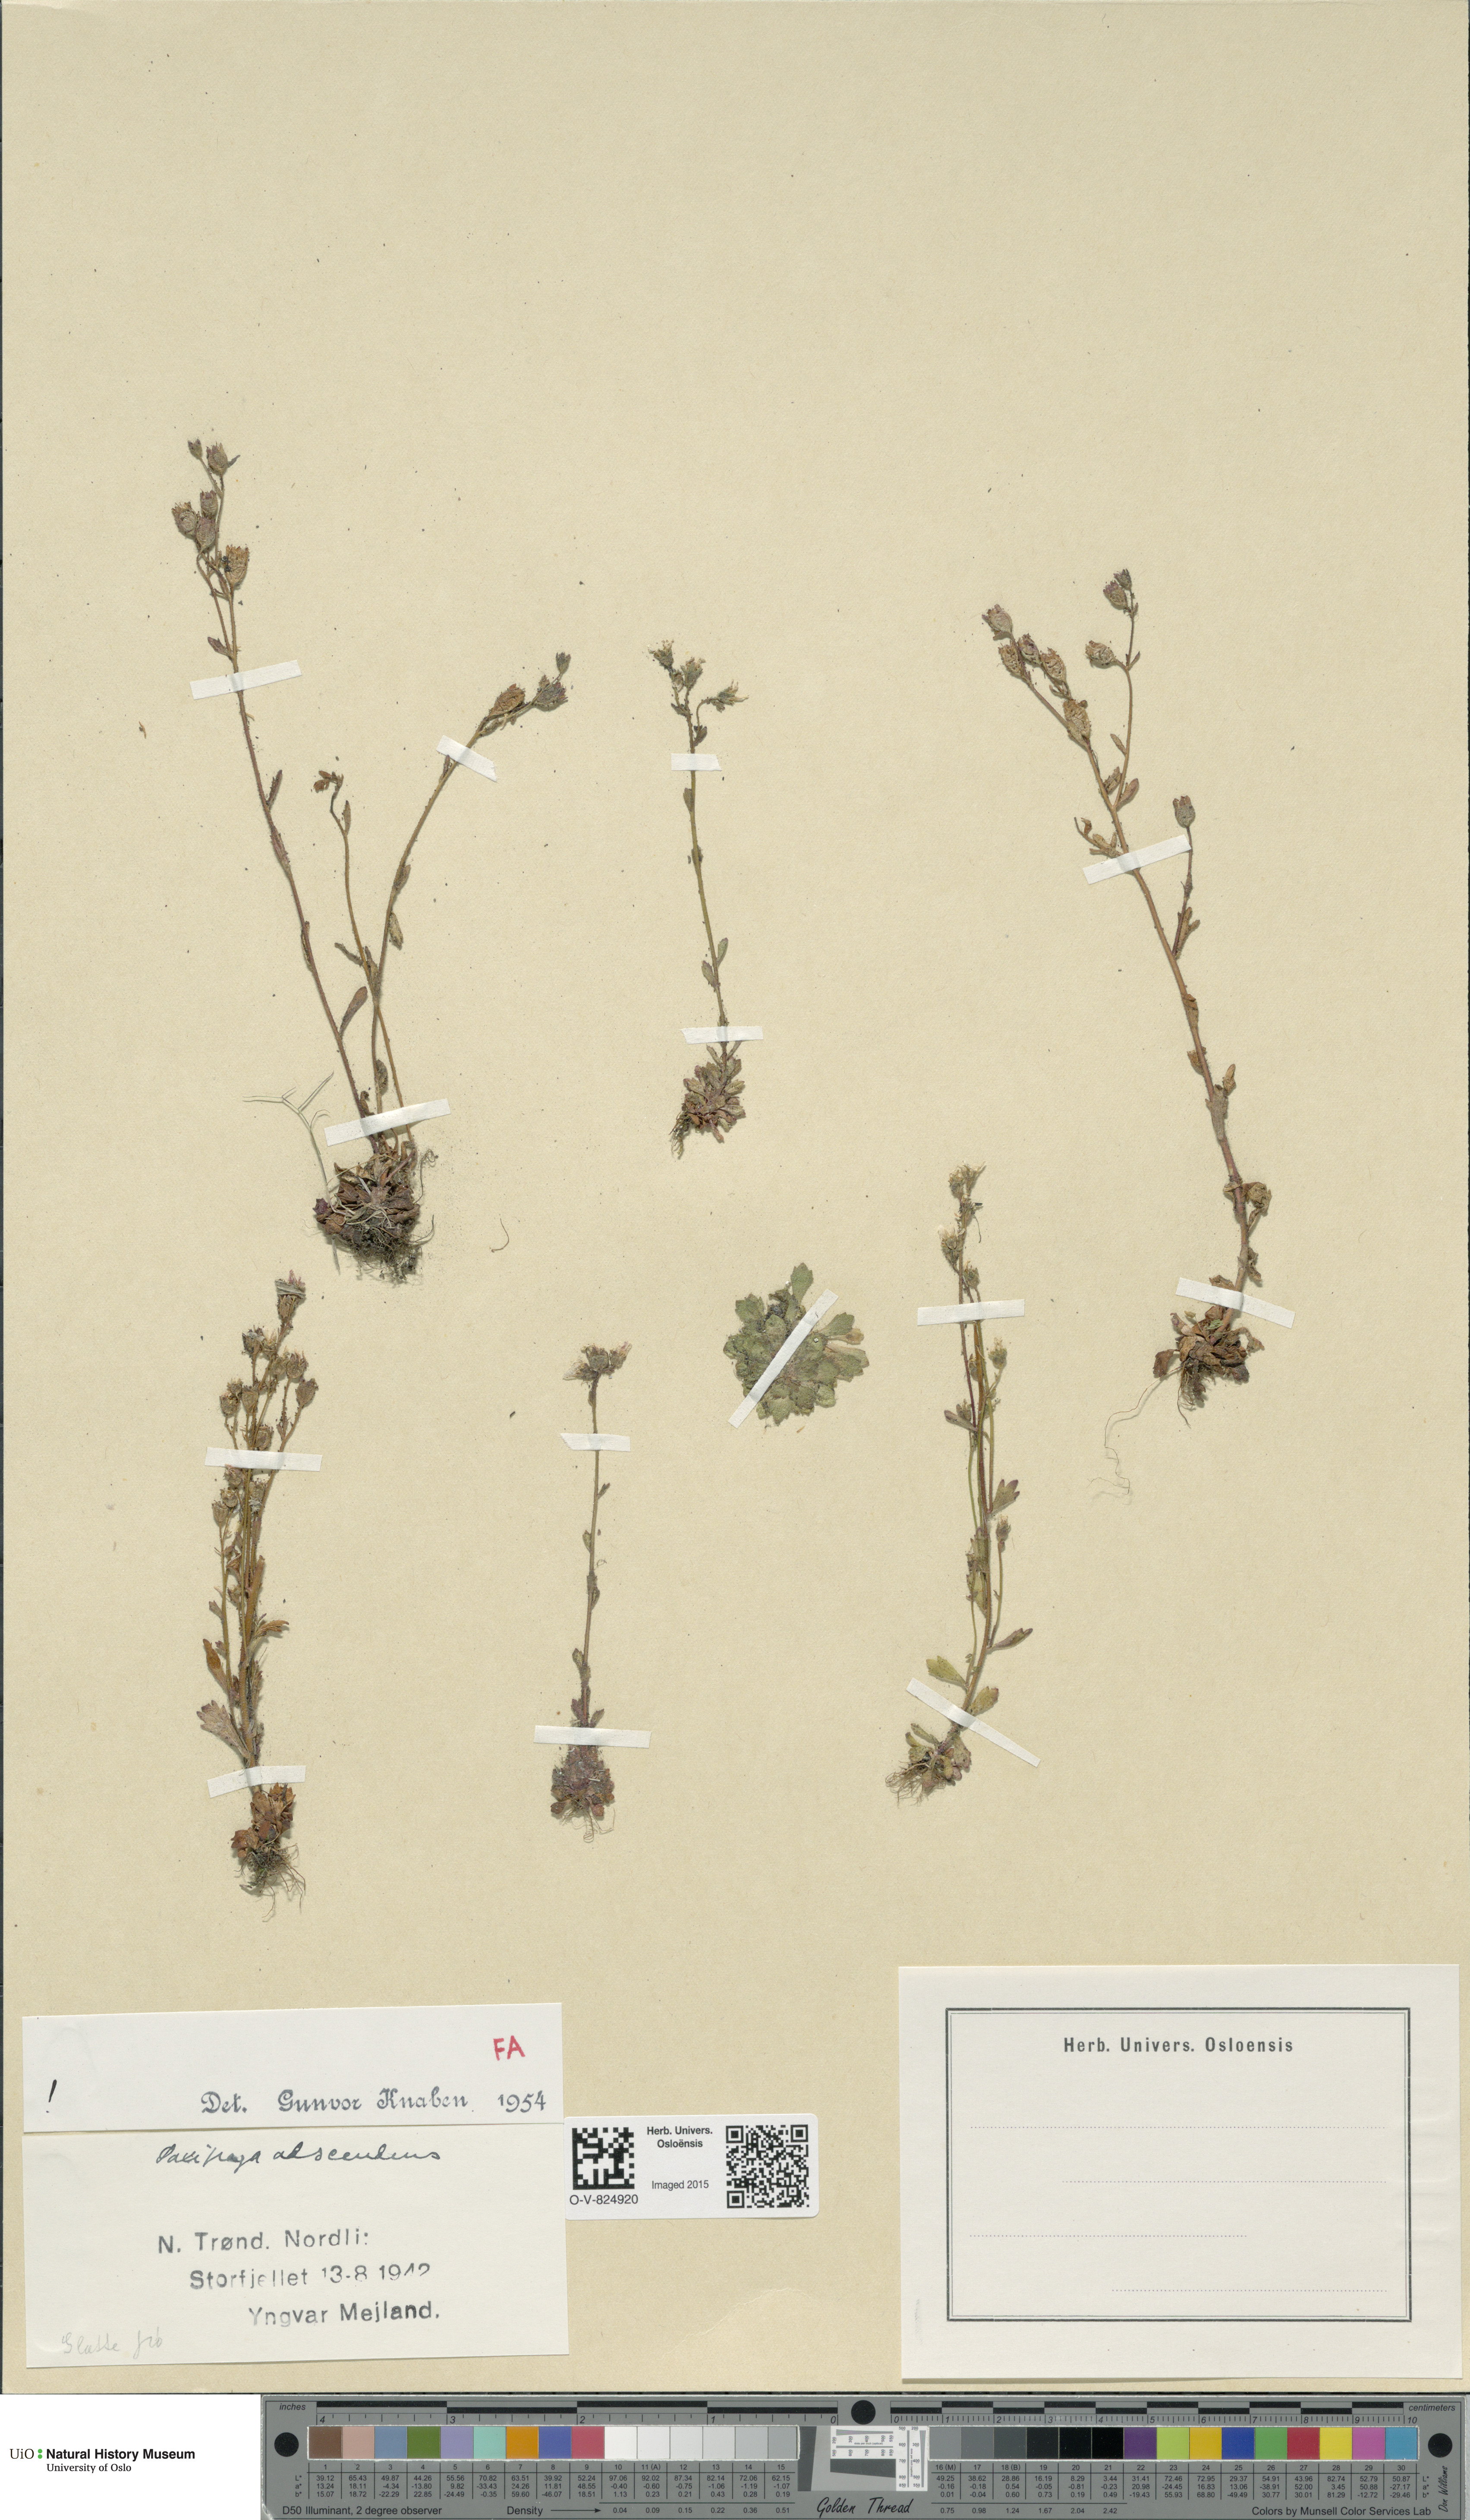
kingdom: Plantae
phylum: Tracheophyta
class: Magnoliopsida
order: Saxifragales
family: Saxifragaceae
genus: Saxifraga
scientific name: Saxifraga adscendens
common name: Ascending saxifrage
